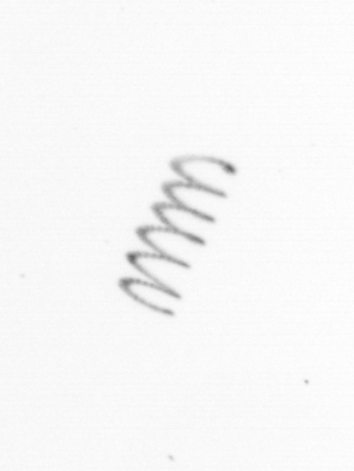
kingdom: Chromista
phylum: Ochrophyta
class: Bacillariophyceae
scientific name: Bacillariophyceae
